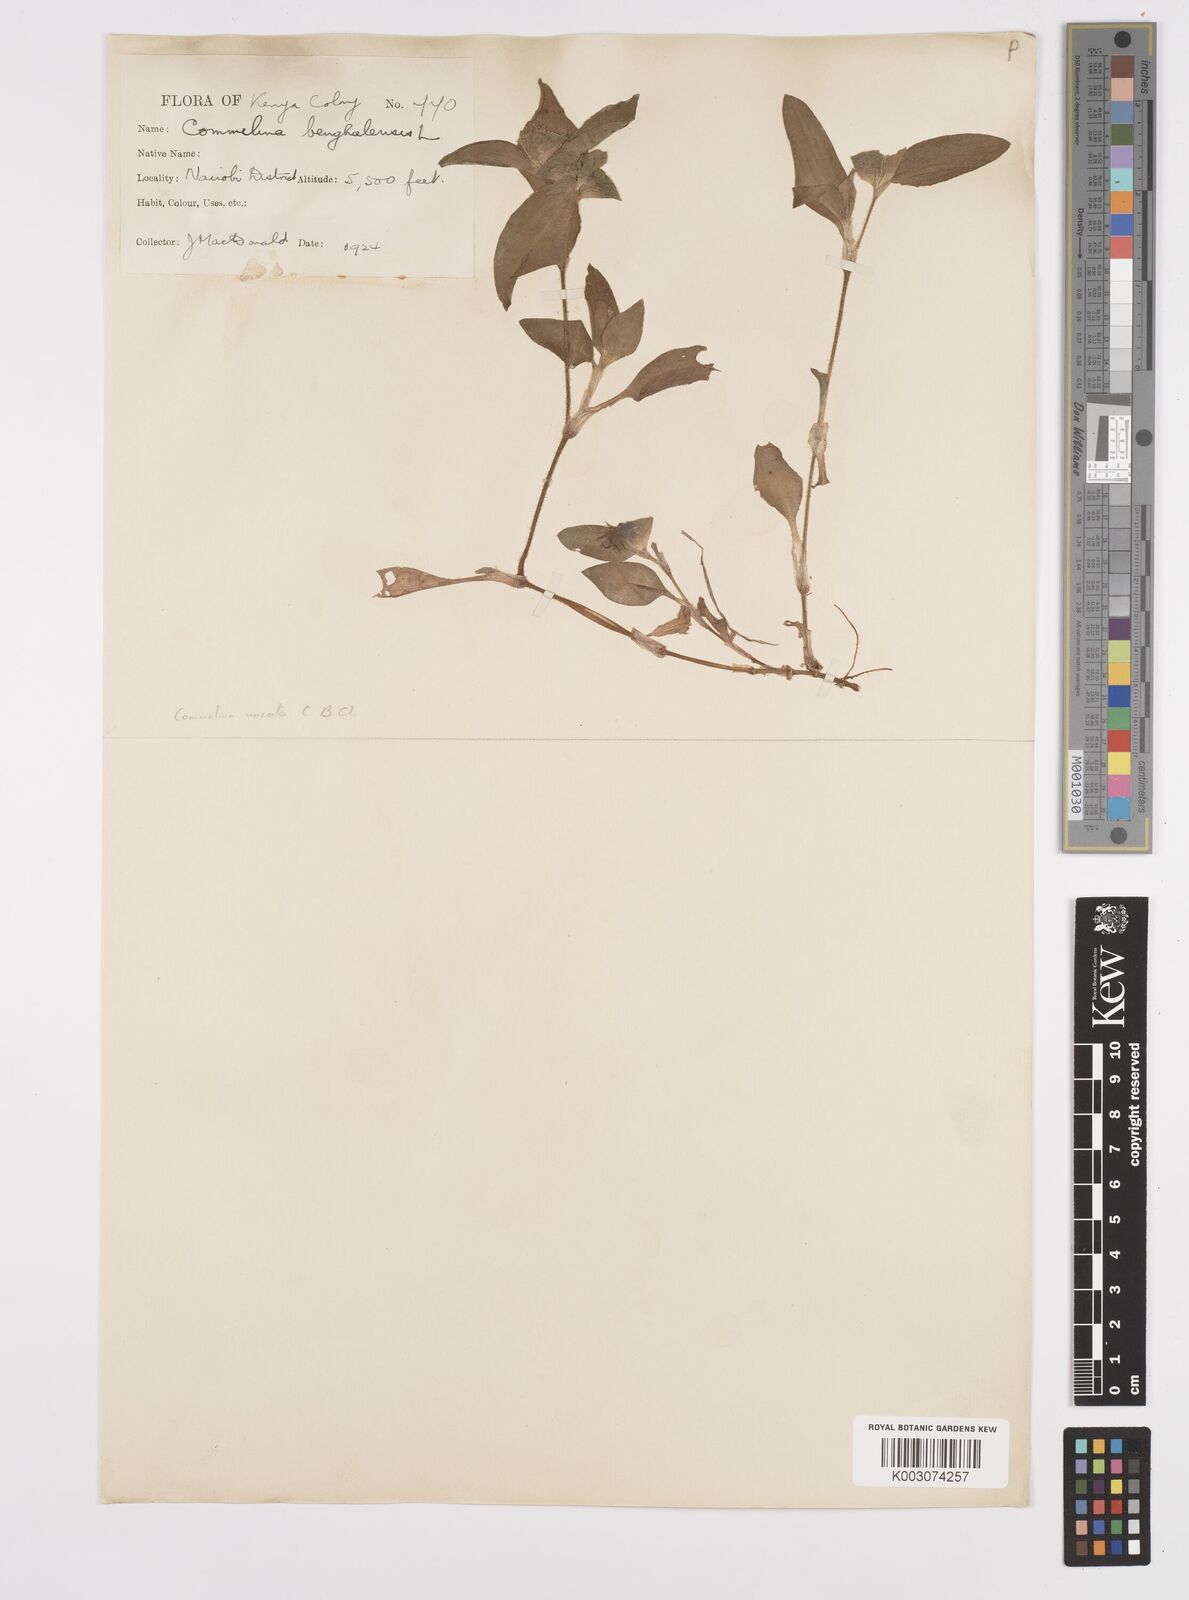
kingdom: Plantae
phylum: Tracheophyta
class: Liliopsida
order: Commelinales
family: Commelinaceae
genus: Commelina
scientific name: Commelina benghalensis
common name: Jio
